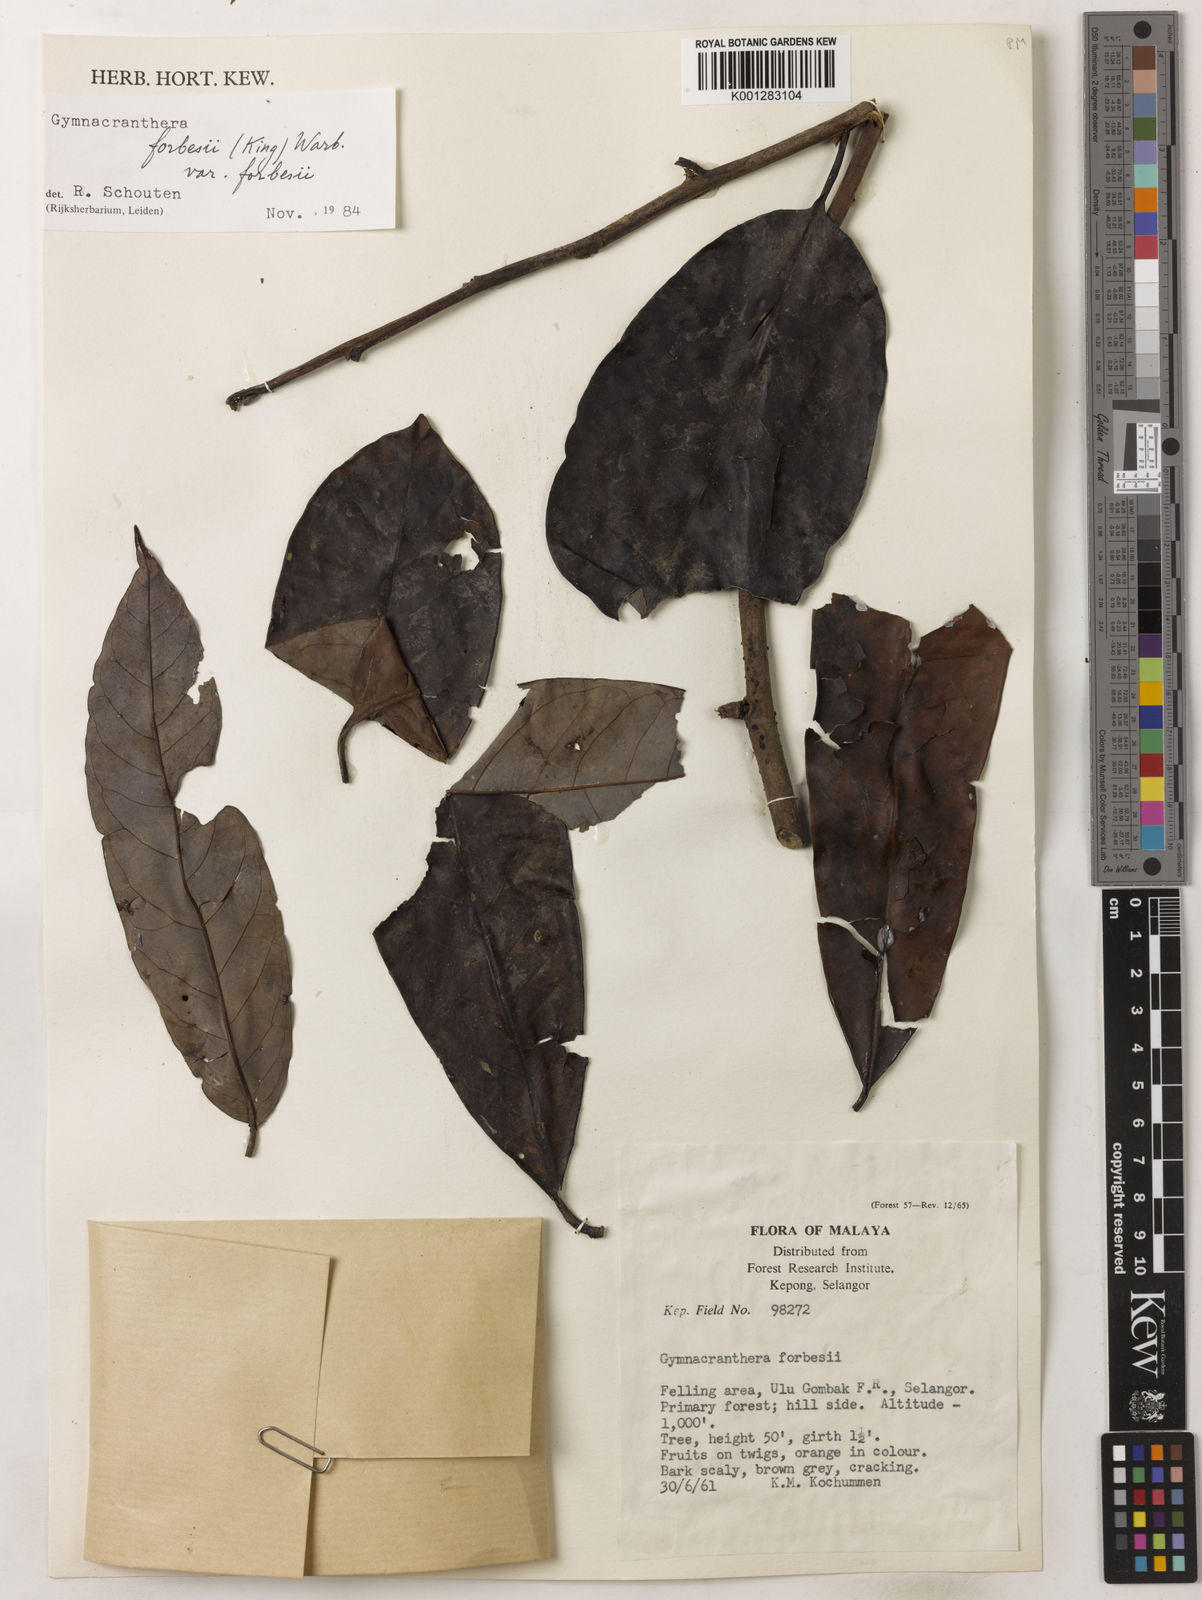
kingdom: Plantae
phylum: Tracheophyta
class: Magnoliopsida
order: Magnoliales
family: Myristicaceae
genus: Gymnacranthera
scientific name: Gymnacranthera forbesii
